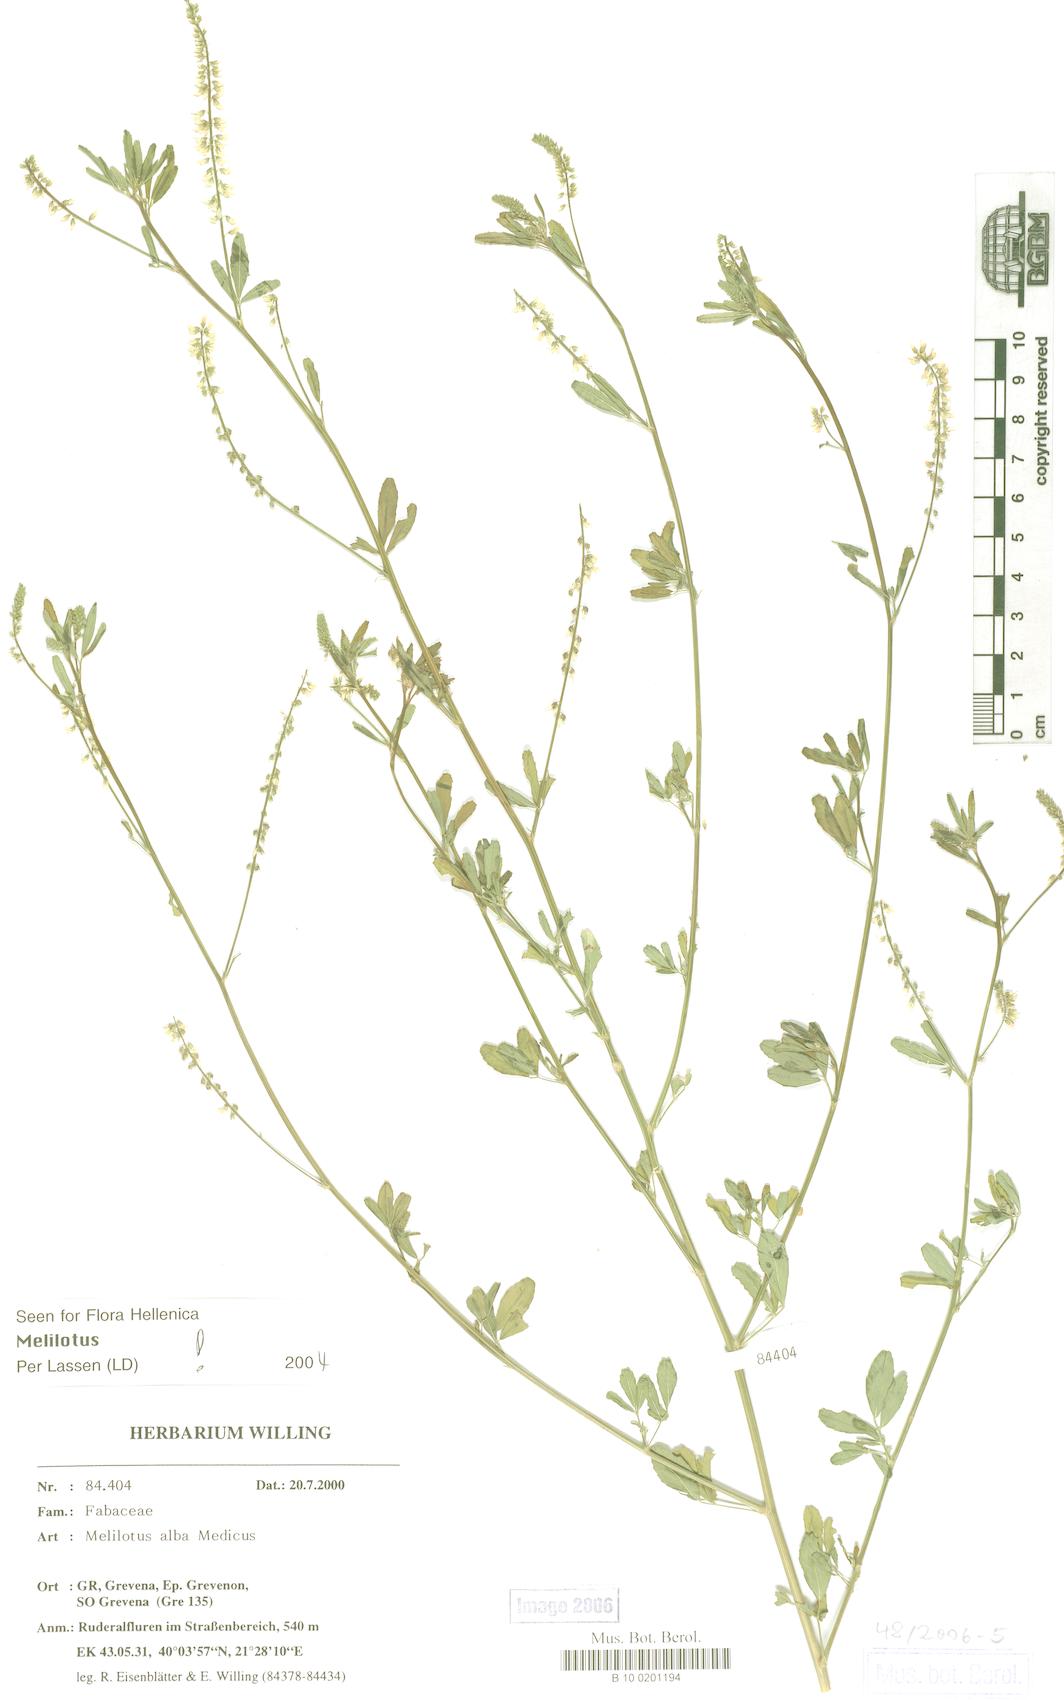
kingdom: Plantae
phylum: Tracheophyta
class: Magnoliopsida
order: Fabales
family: Fabaceae
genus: Melilotus
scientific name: Melilotus albus
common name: White melilot
